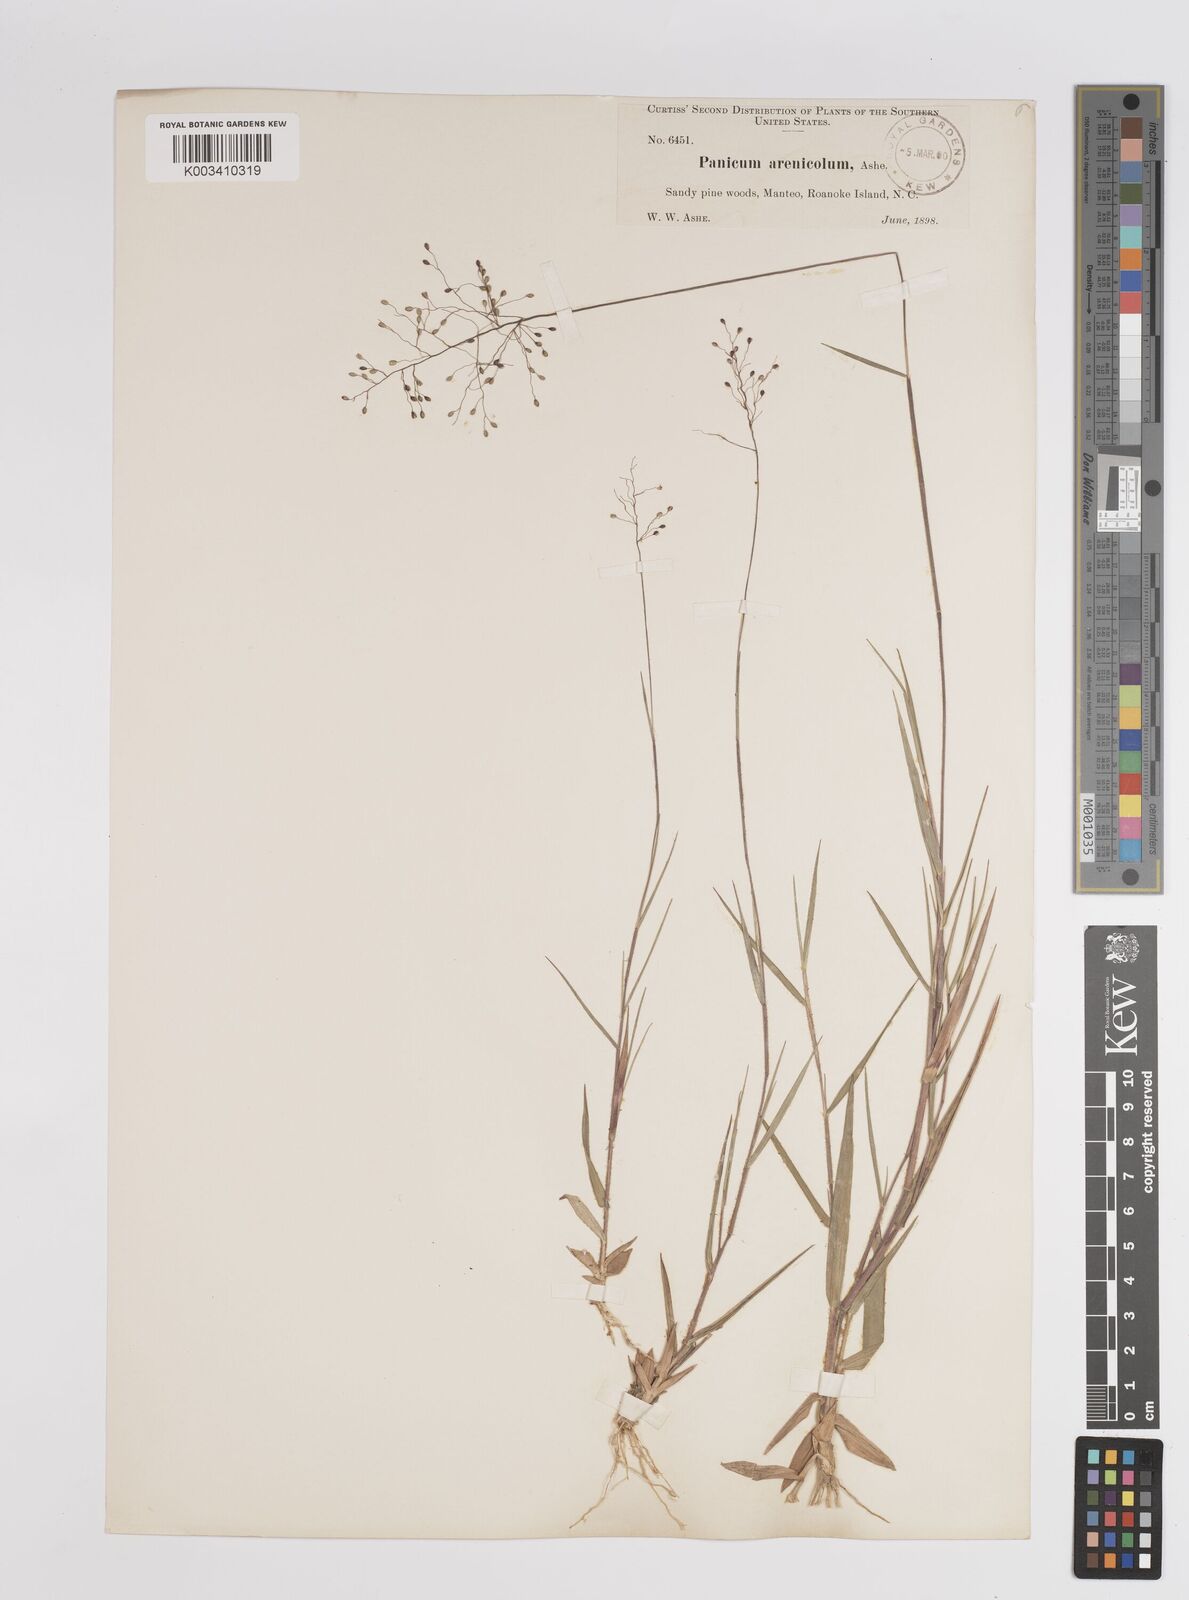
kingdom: Plantae
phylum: Tracheophyta
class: Liliopsida
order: Poales
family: Poaceae
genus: Dichanthelium
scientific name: Dichanthelium aciculare
